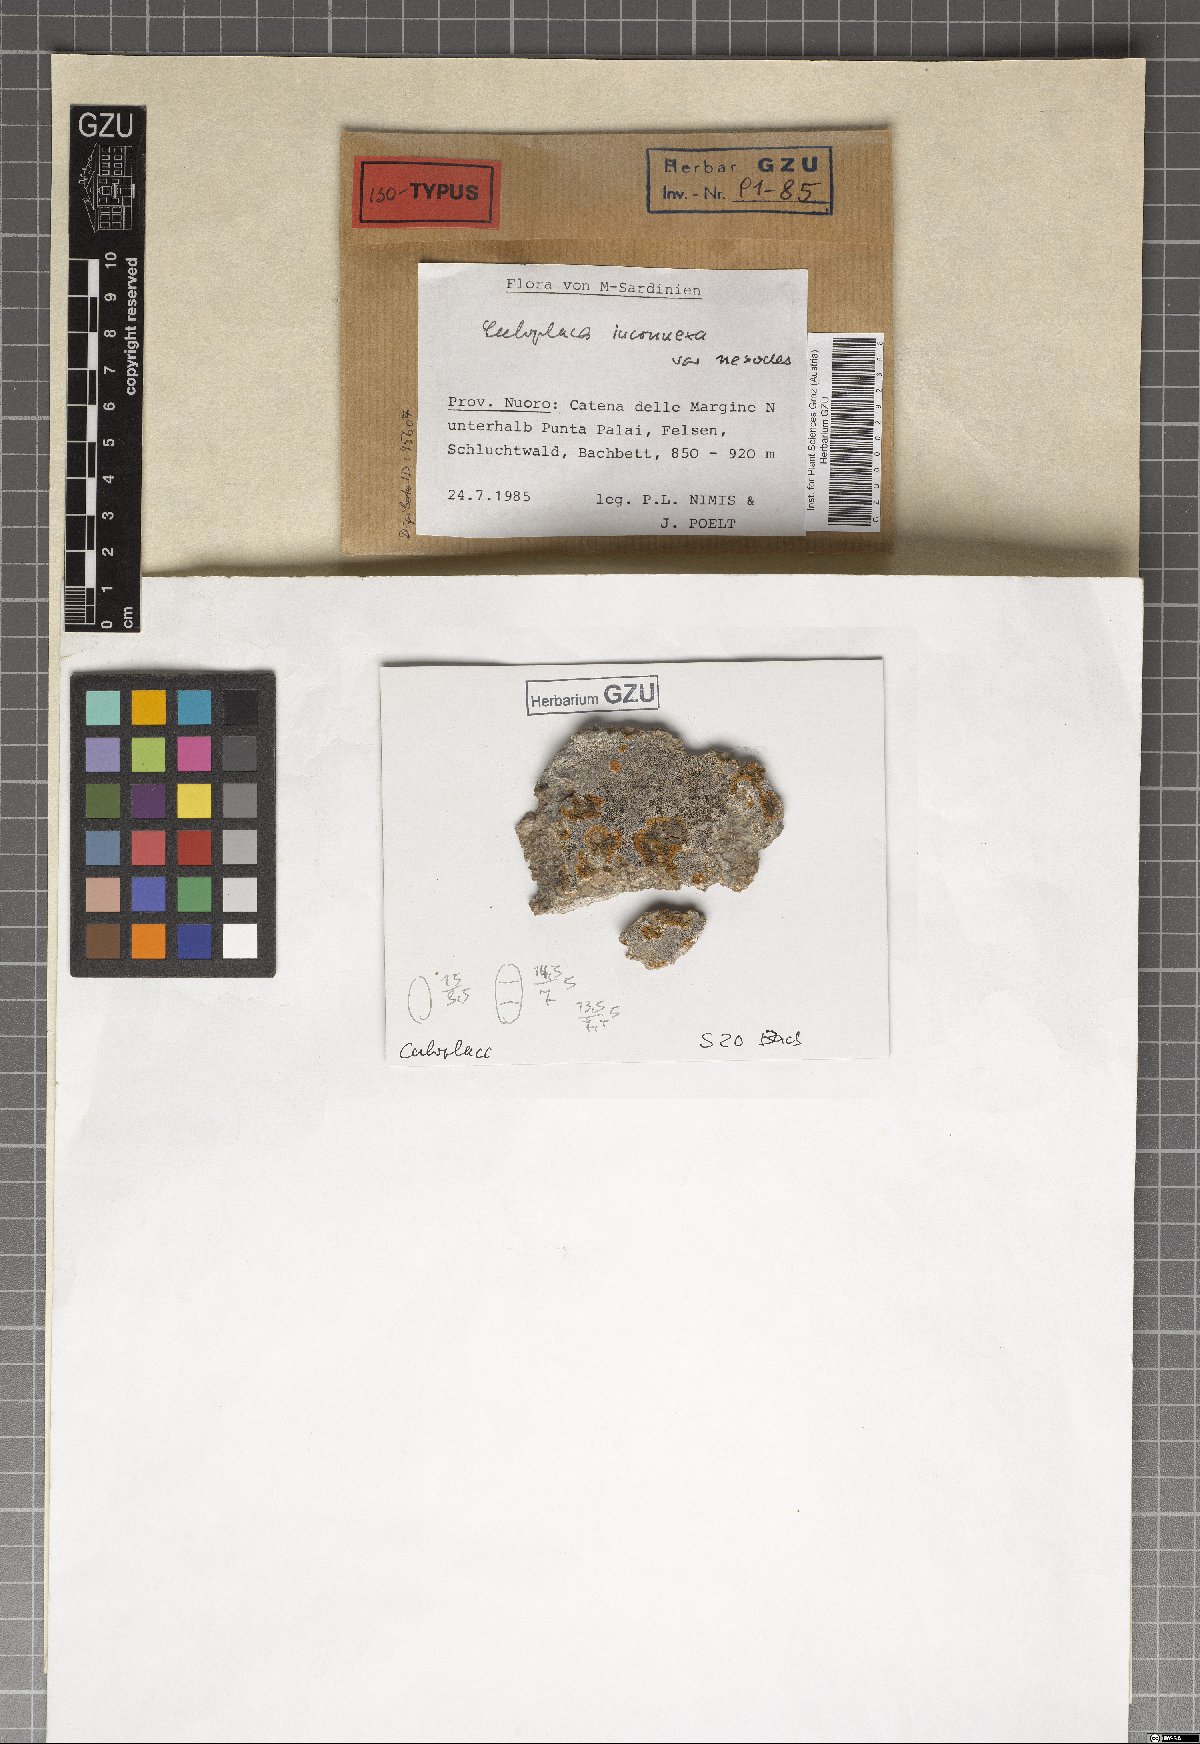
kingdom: Fungi
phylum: Ascomycota
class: Lecanoromycetes
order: Teloschistales
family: Teloschistaceae
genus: Squamulea
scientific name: Squamulea nesodes
